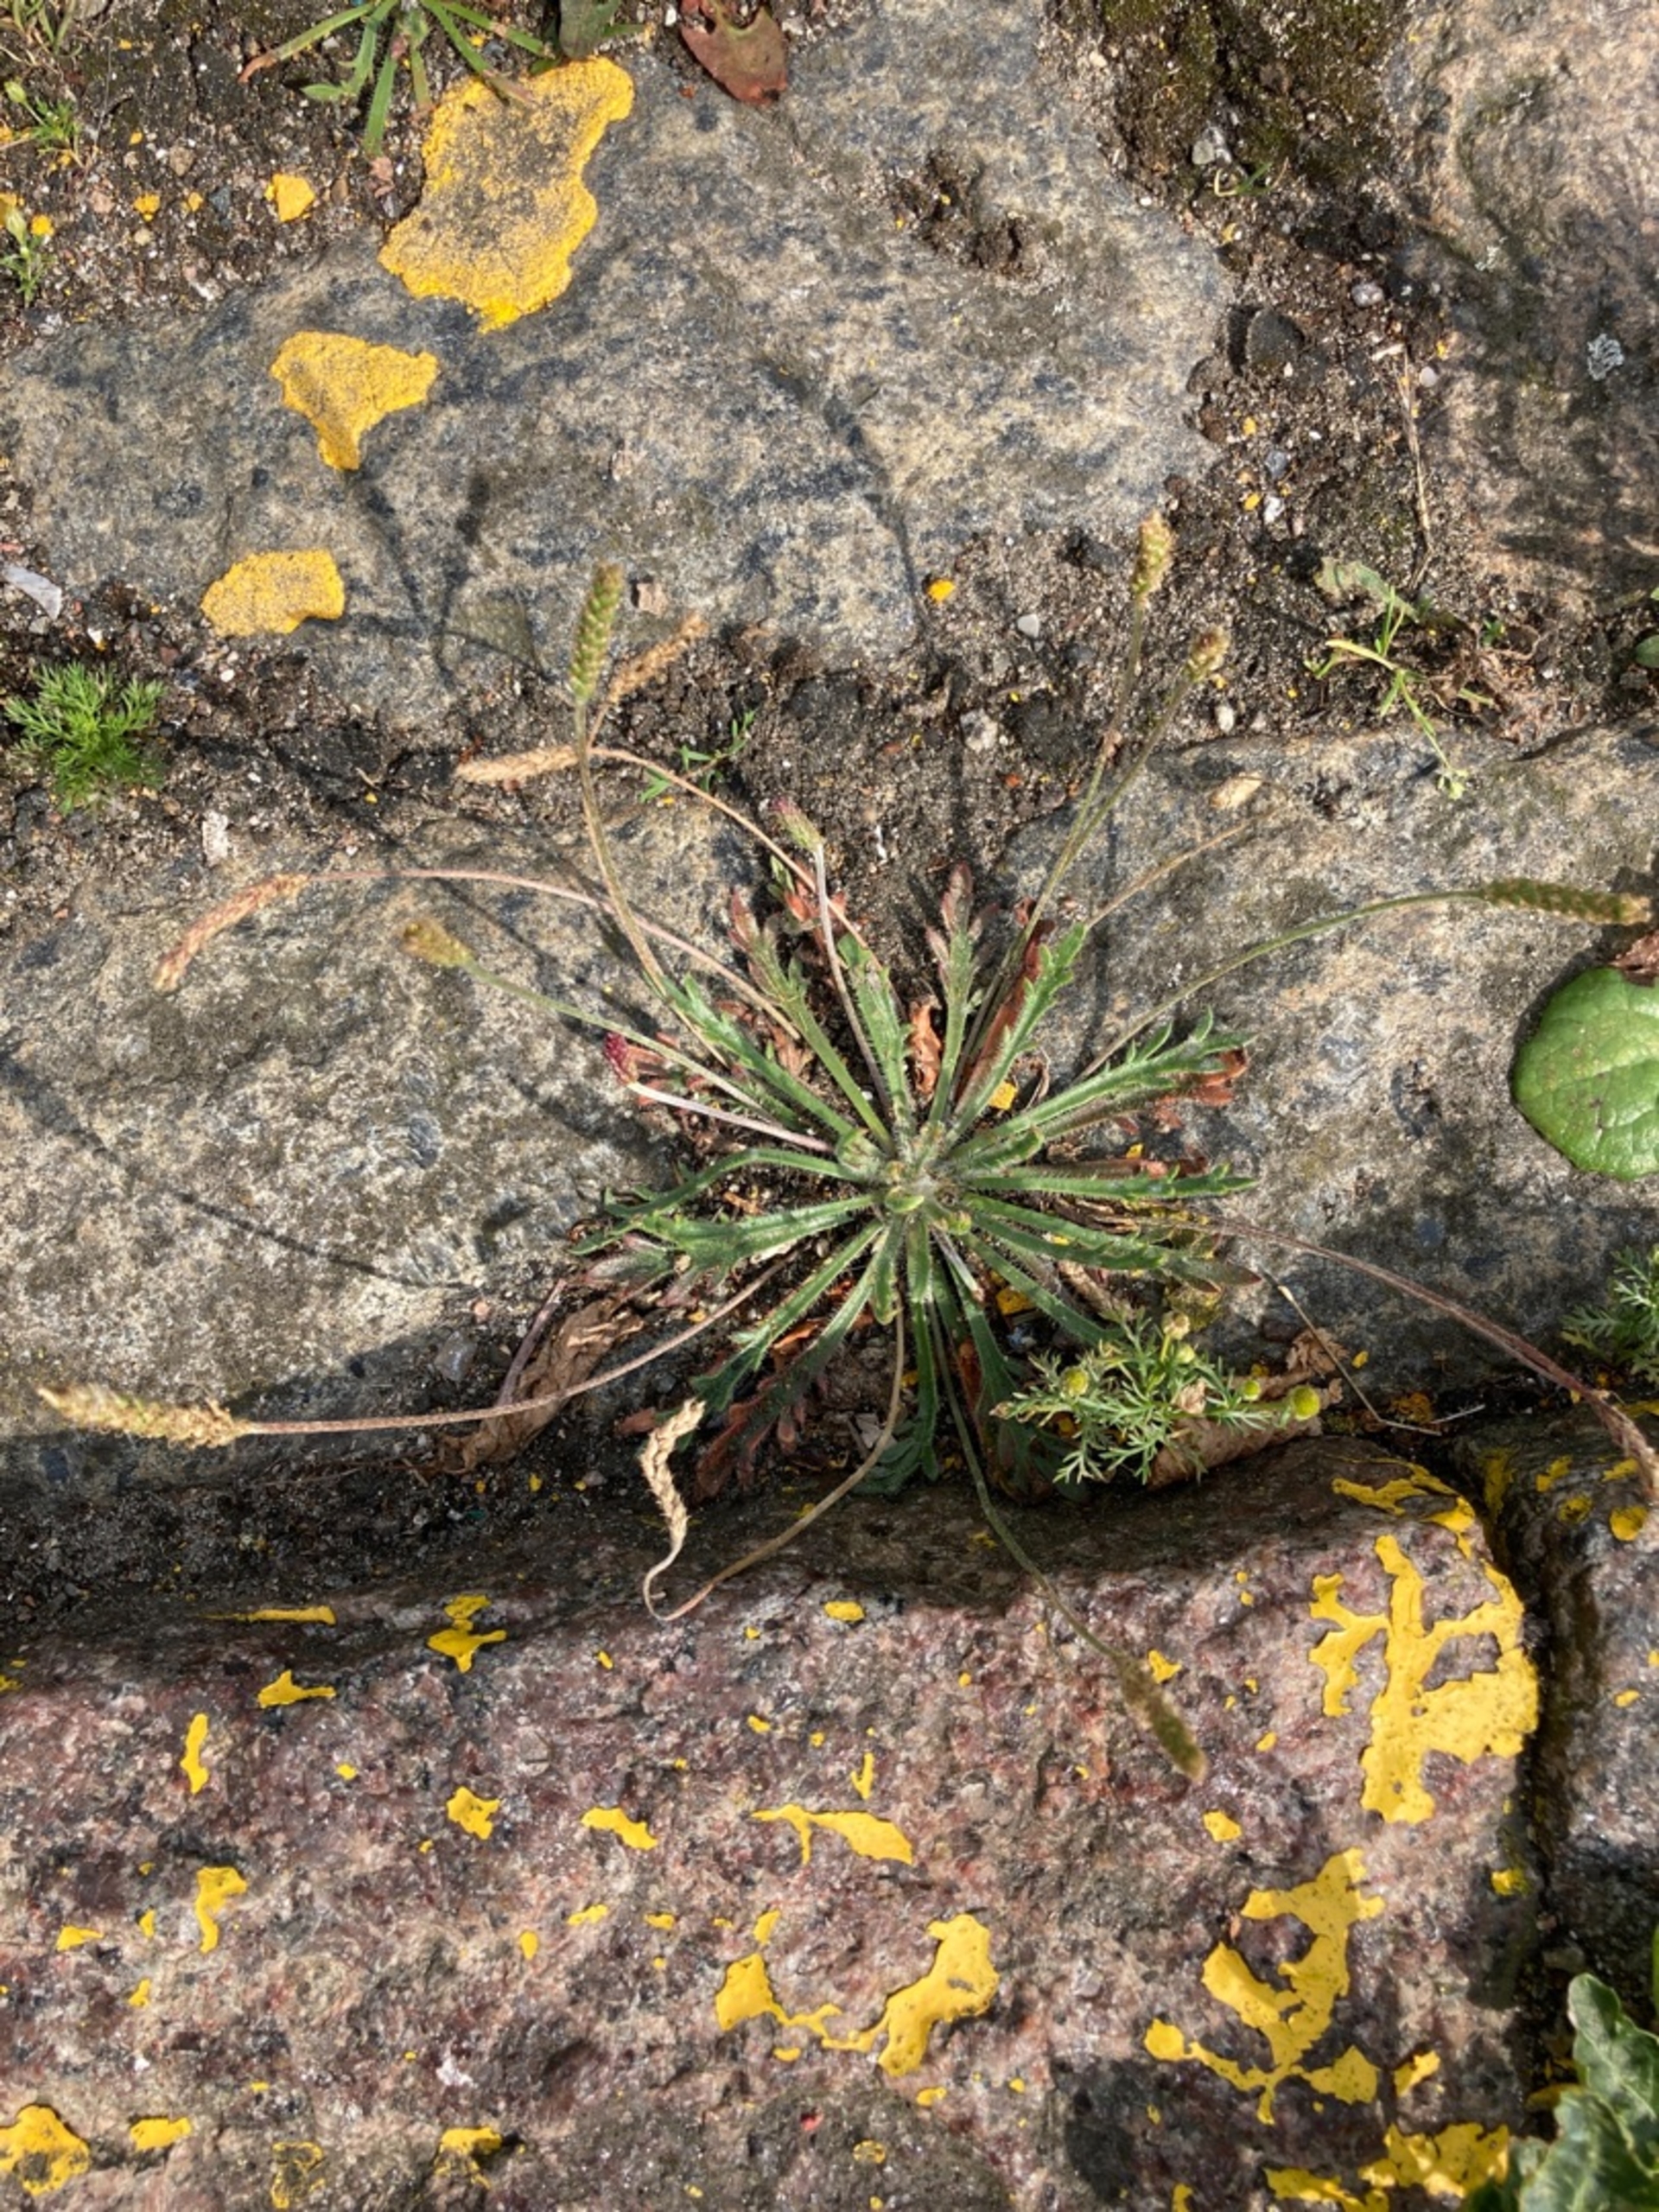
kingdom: Plantae
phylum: Tracheophyta
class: Magnoliopsida
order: Lamiales
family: Plantaginaceae
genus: Plantago
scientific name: Plantago coronopus
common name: Fliget vejbred
